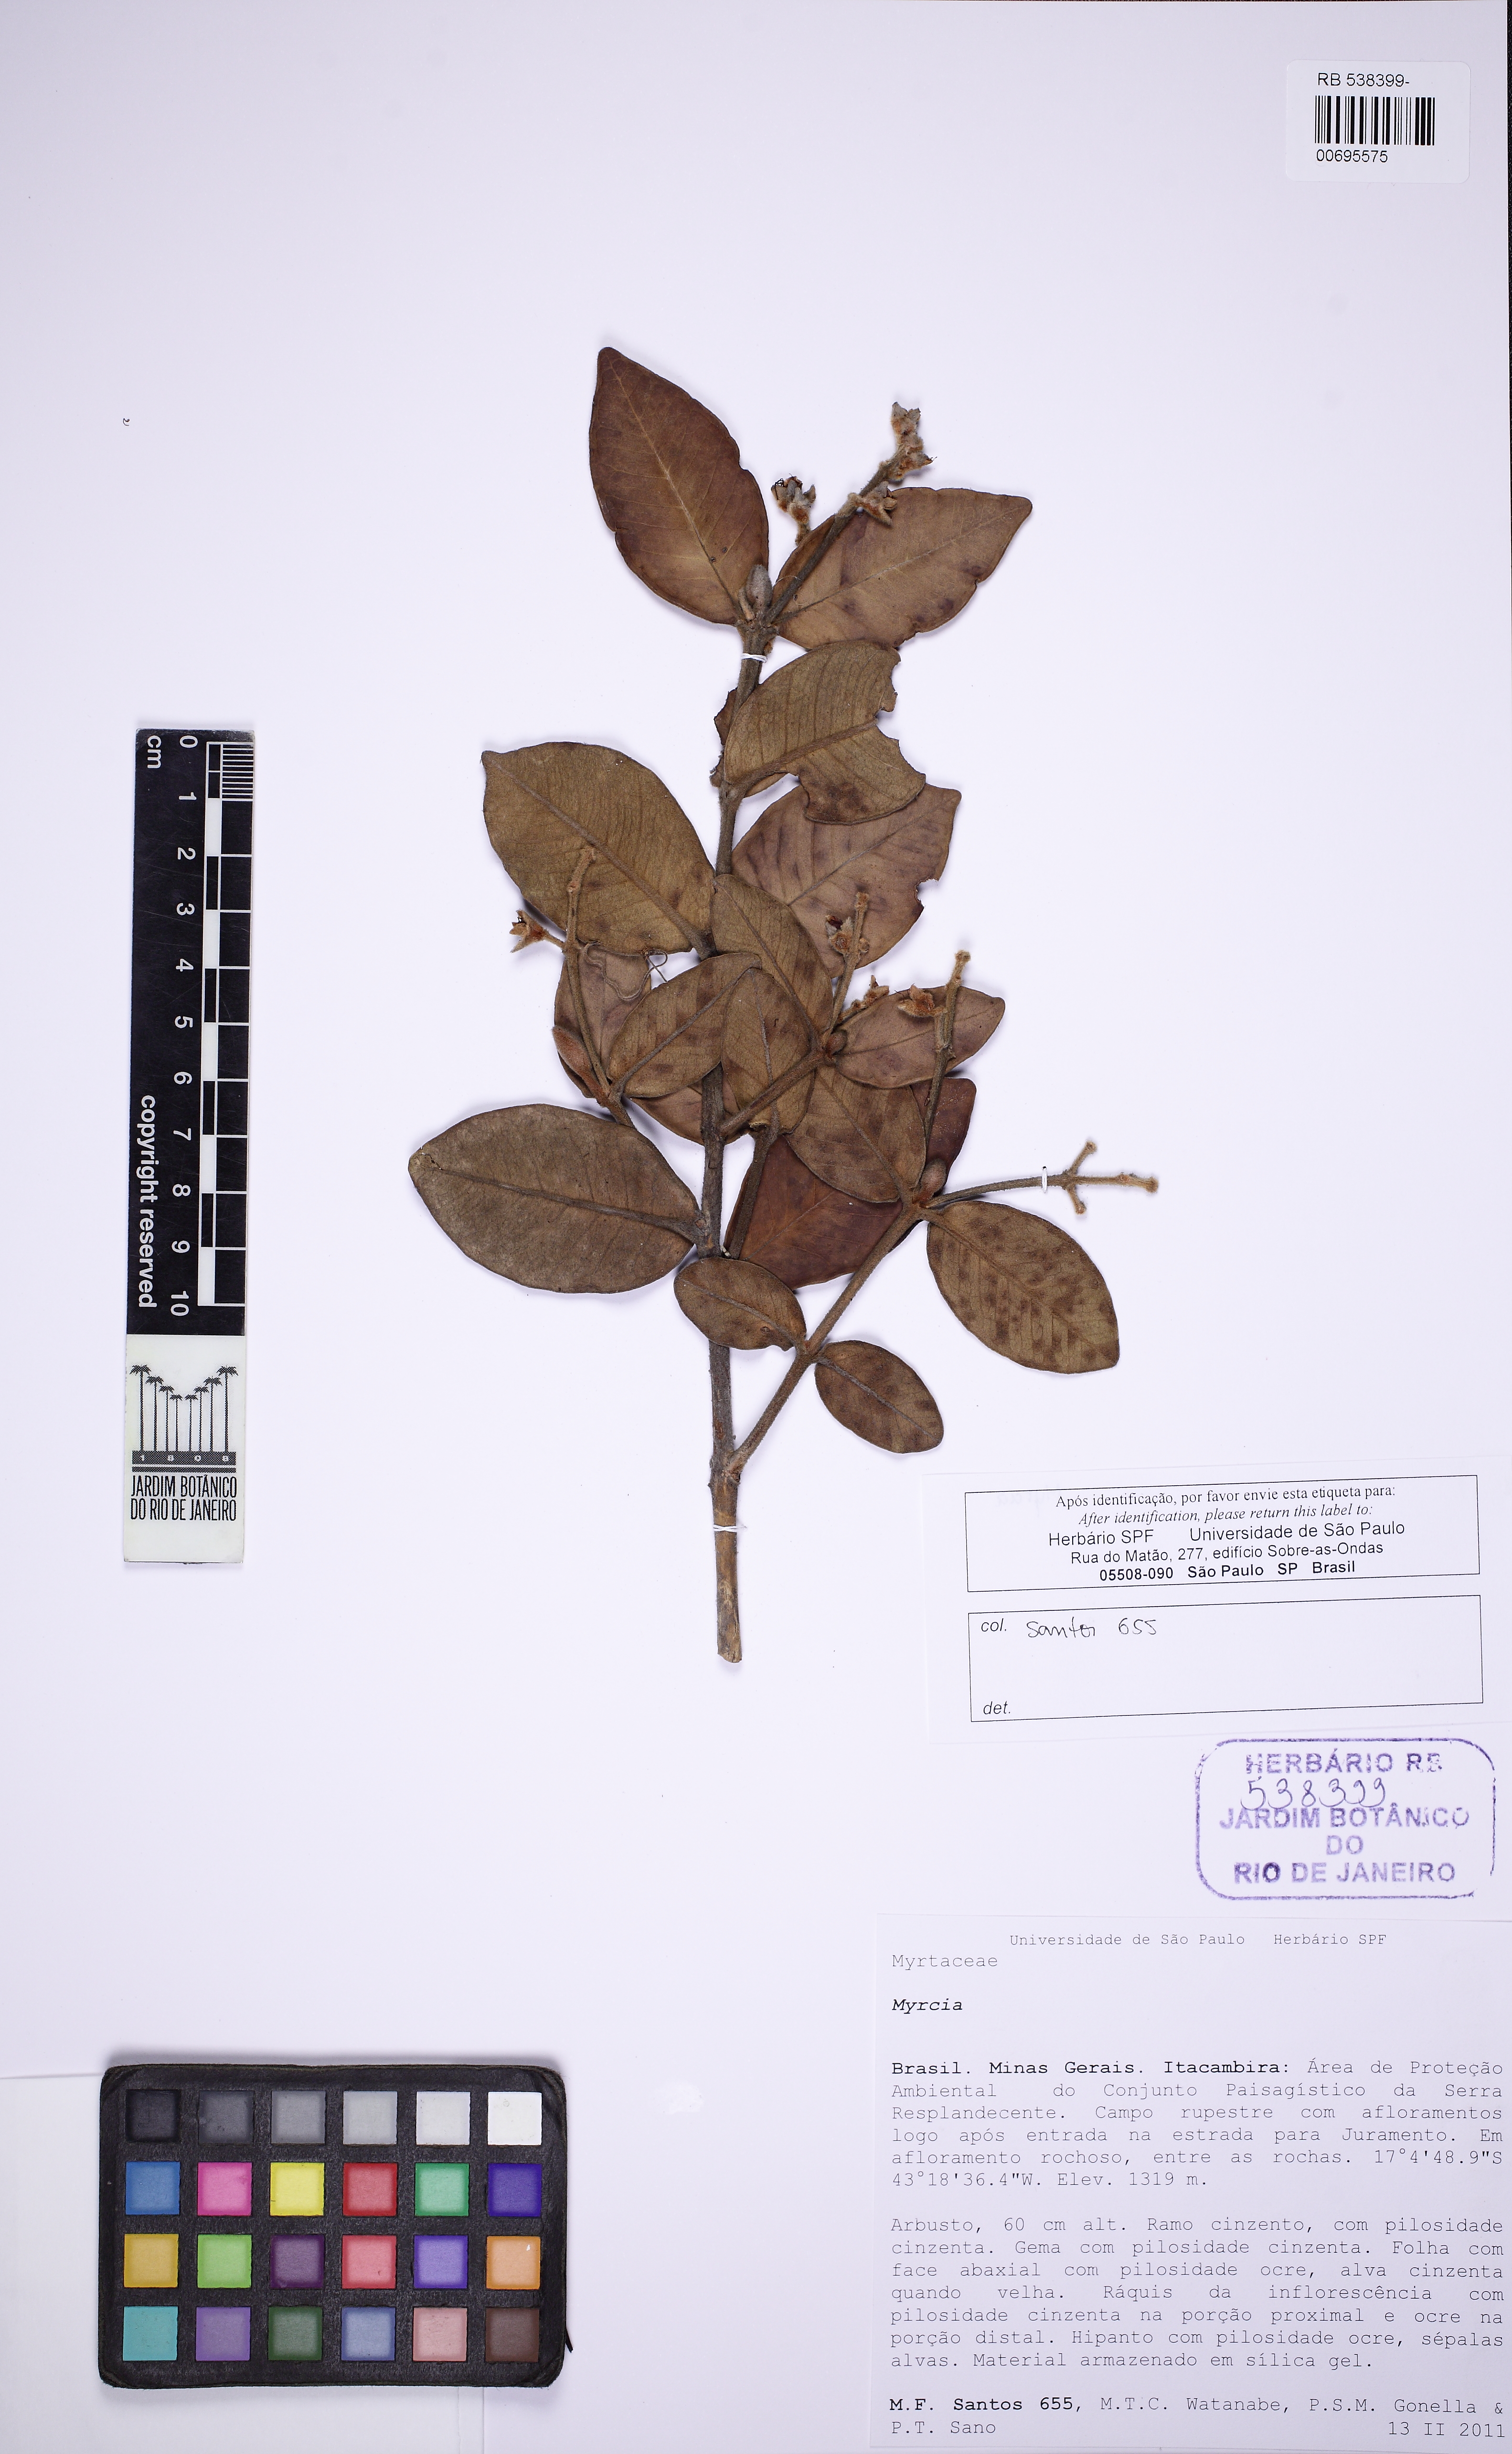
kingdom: Plantae
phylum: Tracheophyta
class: Magnoliopsida
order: Myrtales
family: Myrtaceae
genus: Myrcia
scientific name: Myrcia neospruceana
